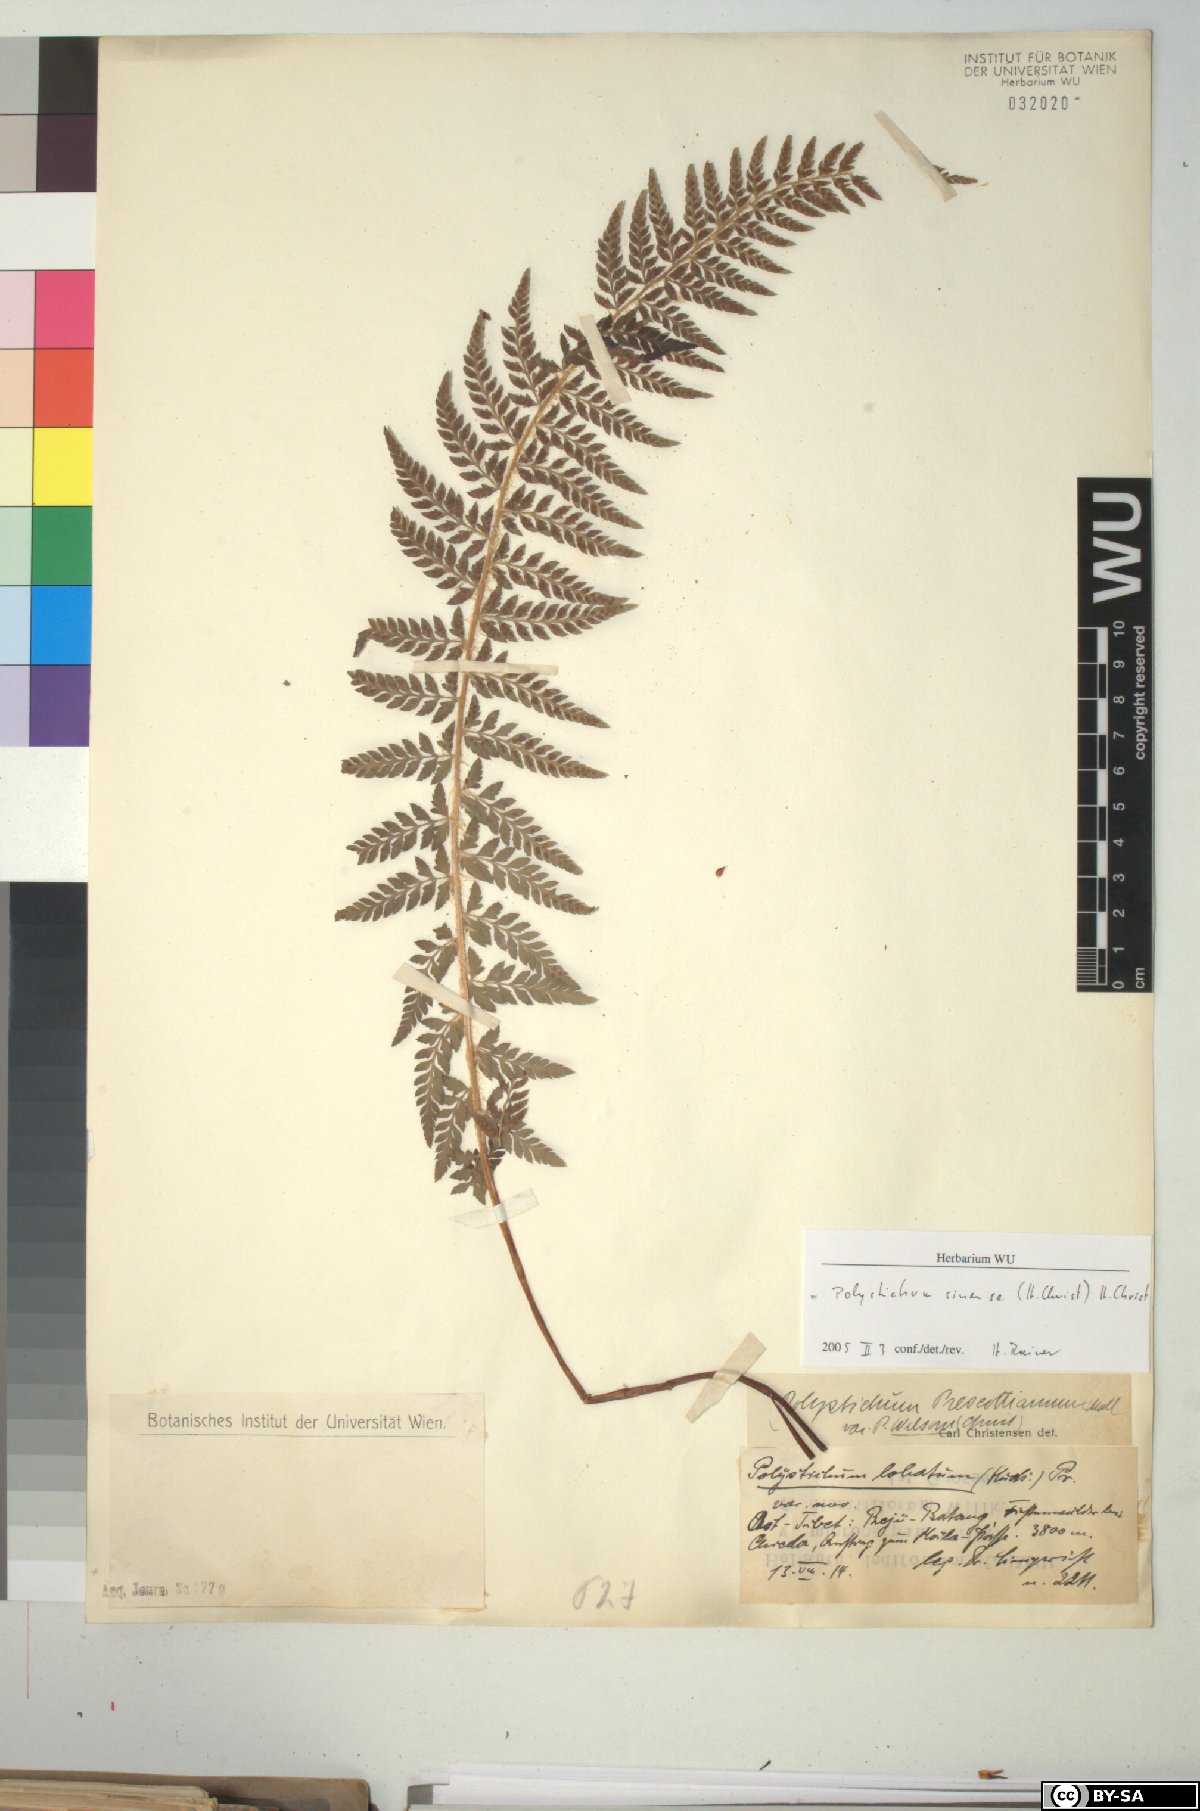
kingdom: Plantae
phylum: Tracheophyta
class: Polypodiopsida
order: Polypodiales
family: Dryopteridaceae
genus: Polystichum
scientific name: Polystichum sinense
